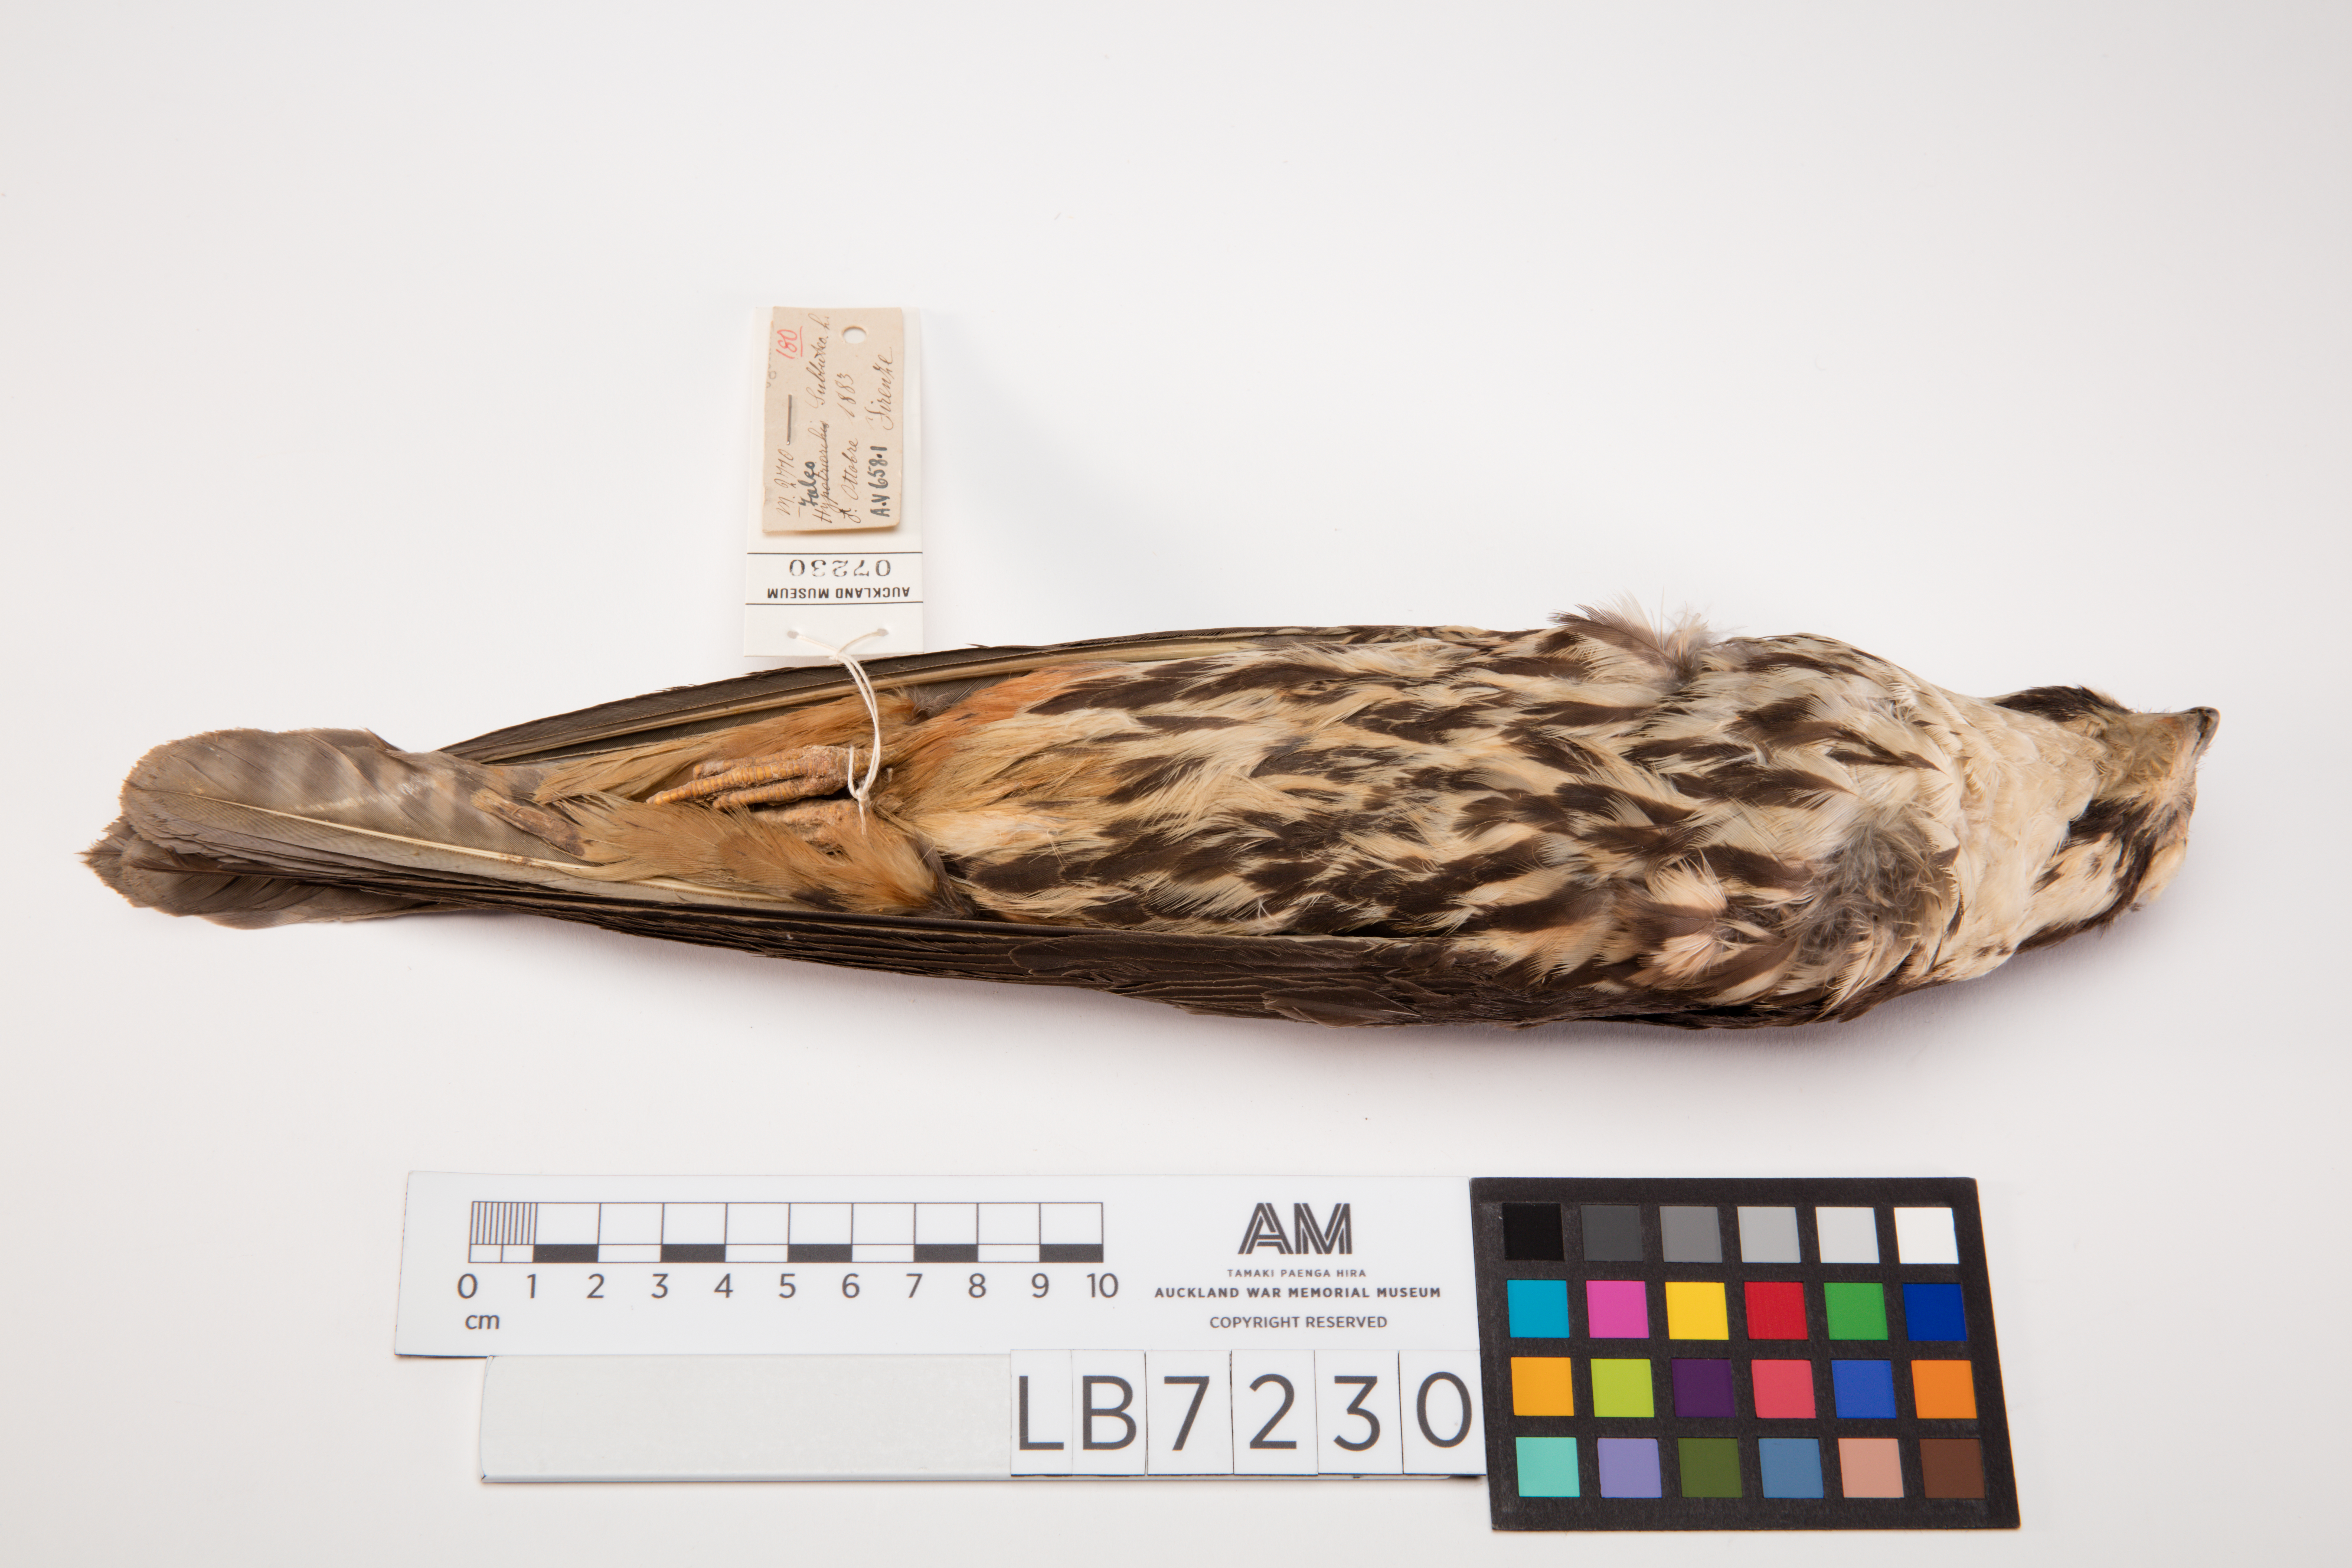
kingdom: Animalia
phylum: Chordata
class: Aves
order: Falconiformes
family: Falconidae
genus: Falco
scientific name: Falco subbuteo
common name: Eurasian hobby
